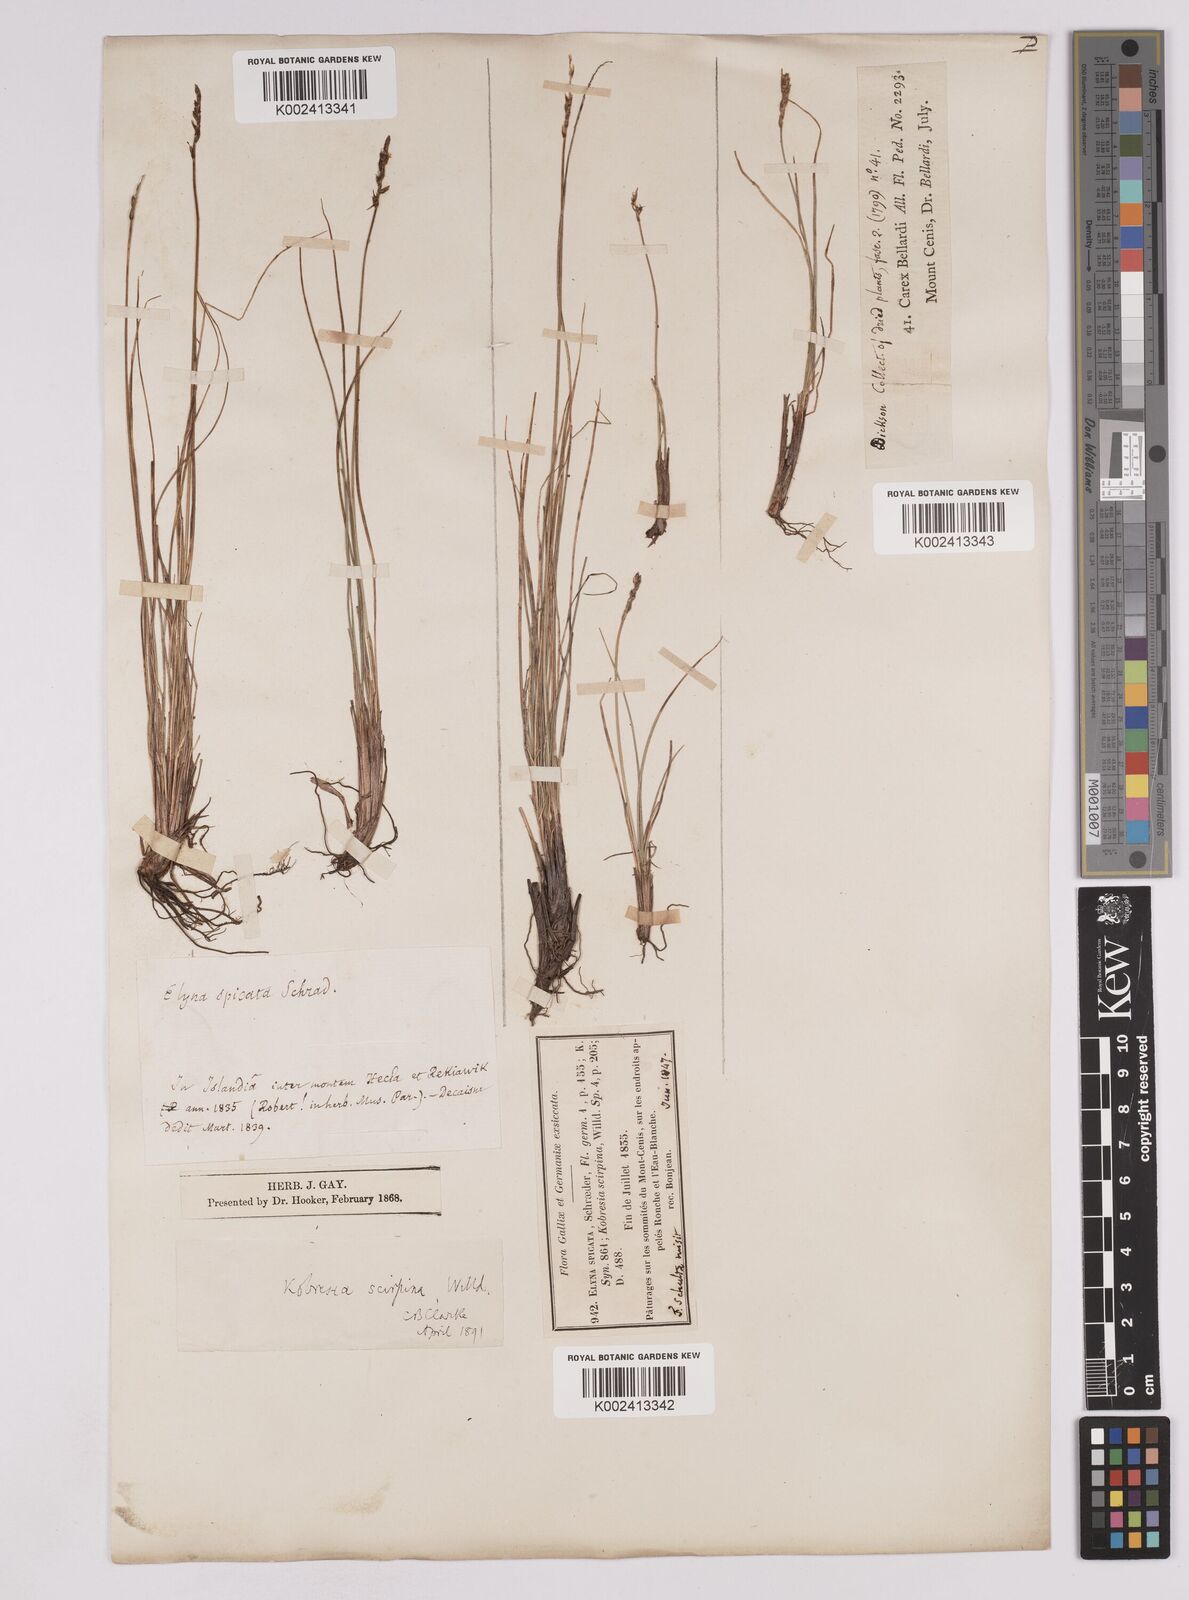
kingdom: Plantae
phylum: Tracheophyta
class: Liliopsida
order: Poales
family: Cyperaceae
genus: Carex
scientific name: Carex myosuroides
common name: Bellard's bog sedge
